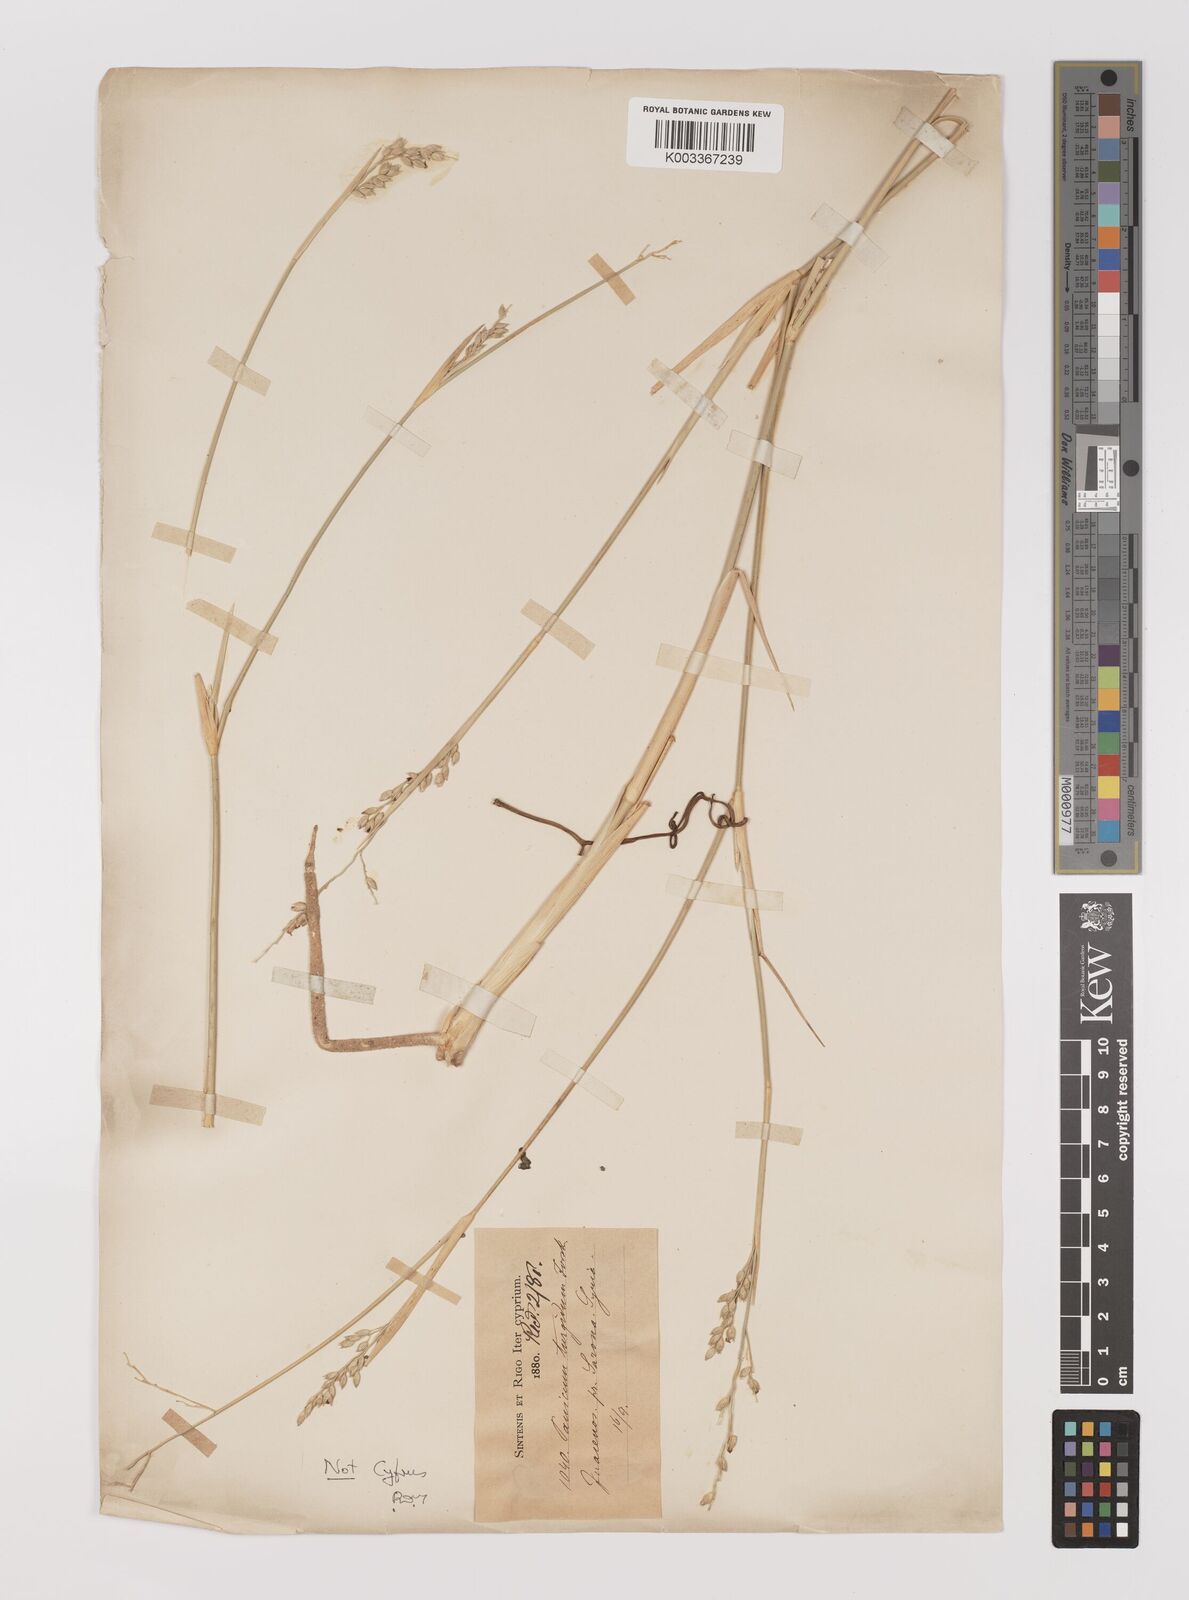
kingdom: Plantae
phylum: Tracheophyta
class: Liliopsida
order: Poales
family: Poaceae
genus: Panicum
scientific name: Panicum turgidum
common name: Desert grass
